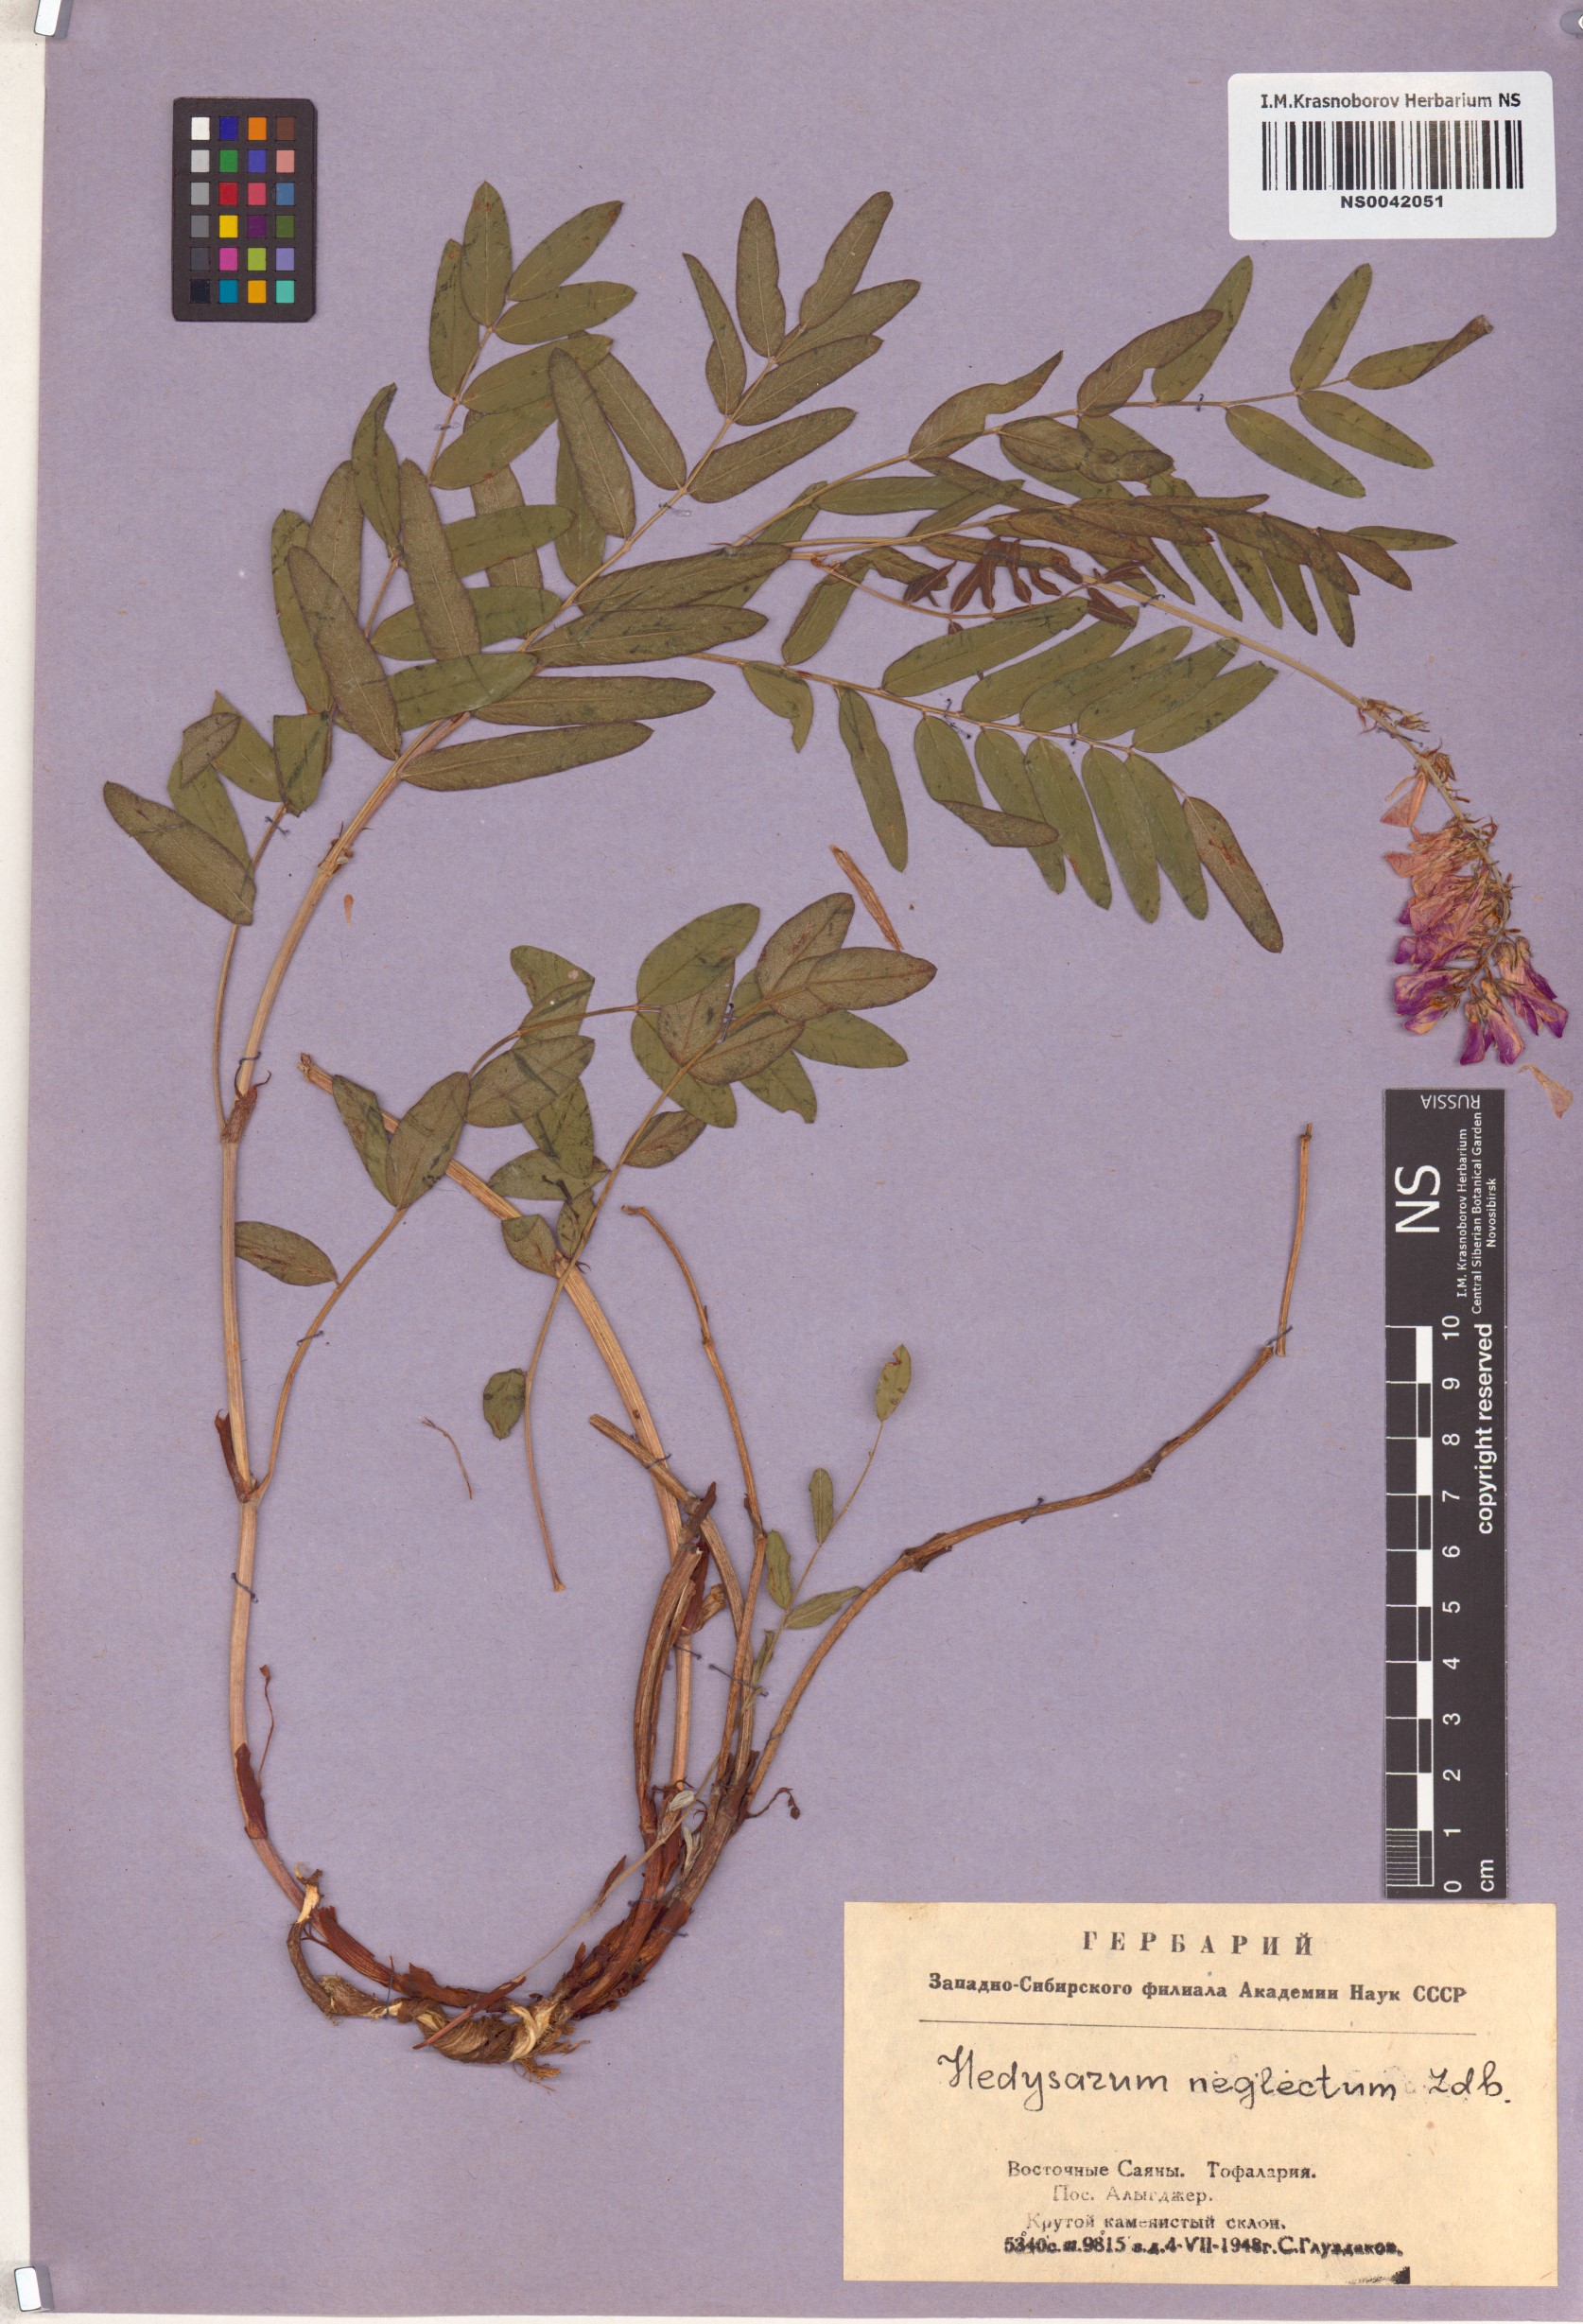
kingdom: Plantae
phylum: Tracheophyta
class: Magnoliopsida
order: Fabales
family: Fabaceae
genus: Hedysarum
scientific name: Hedysarum neglectum
